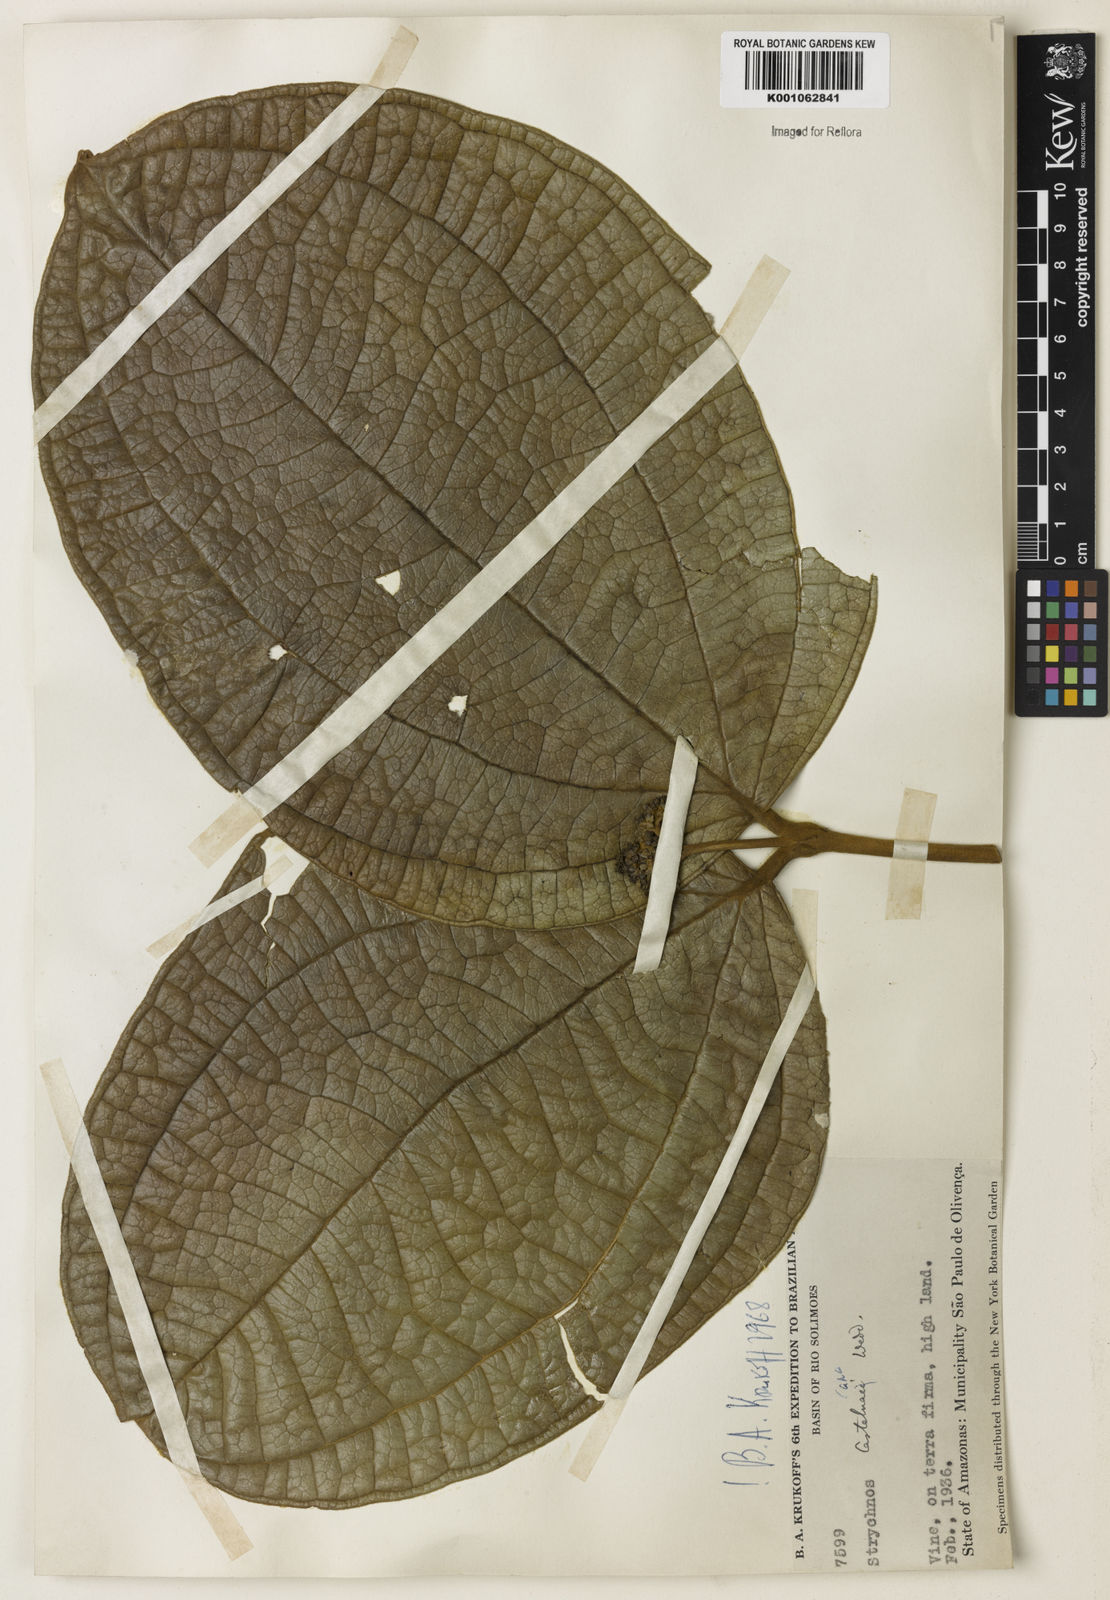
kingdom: Plantae
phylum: Tracheophyta
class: Magnoliopsida
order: Gentianales
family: Loganiaceae
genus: Strychnos
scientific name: Strychnos
